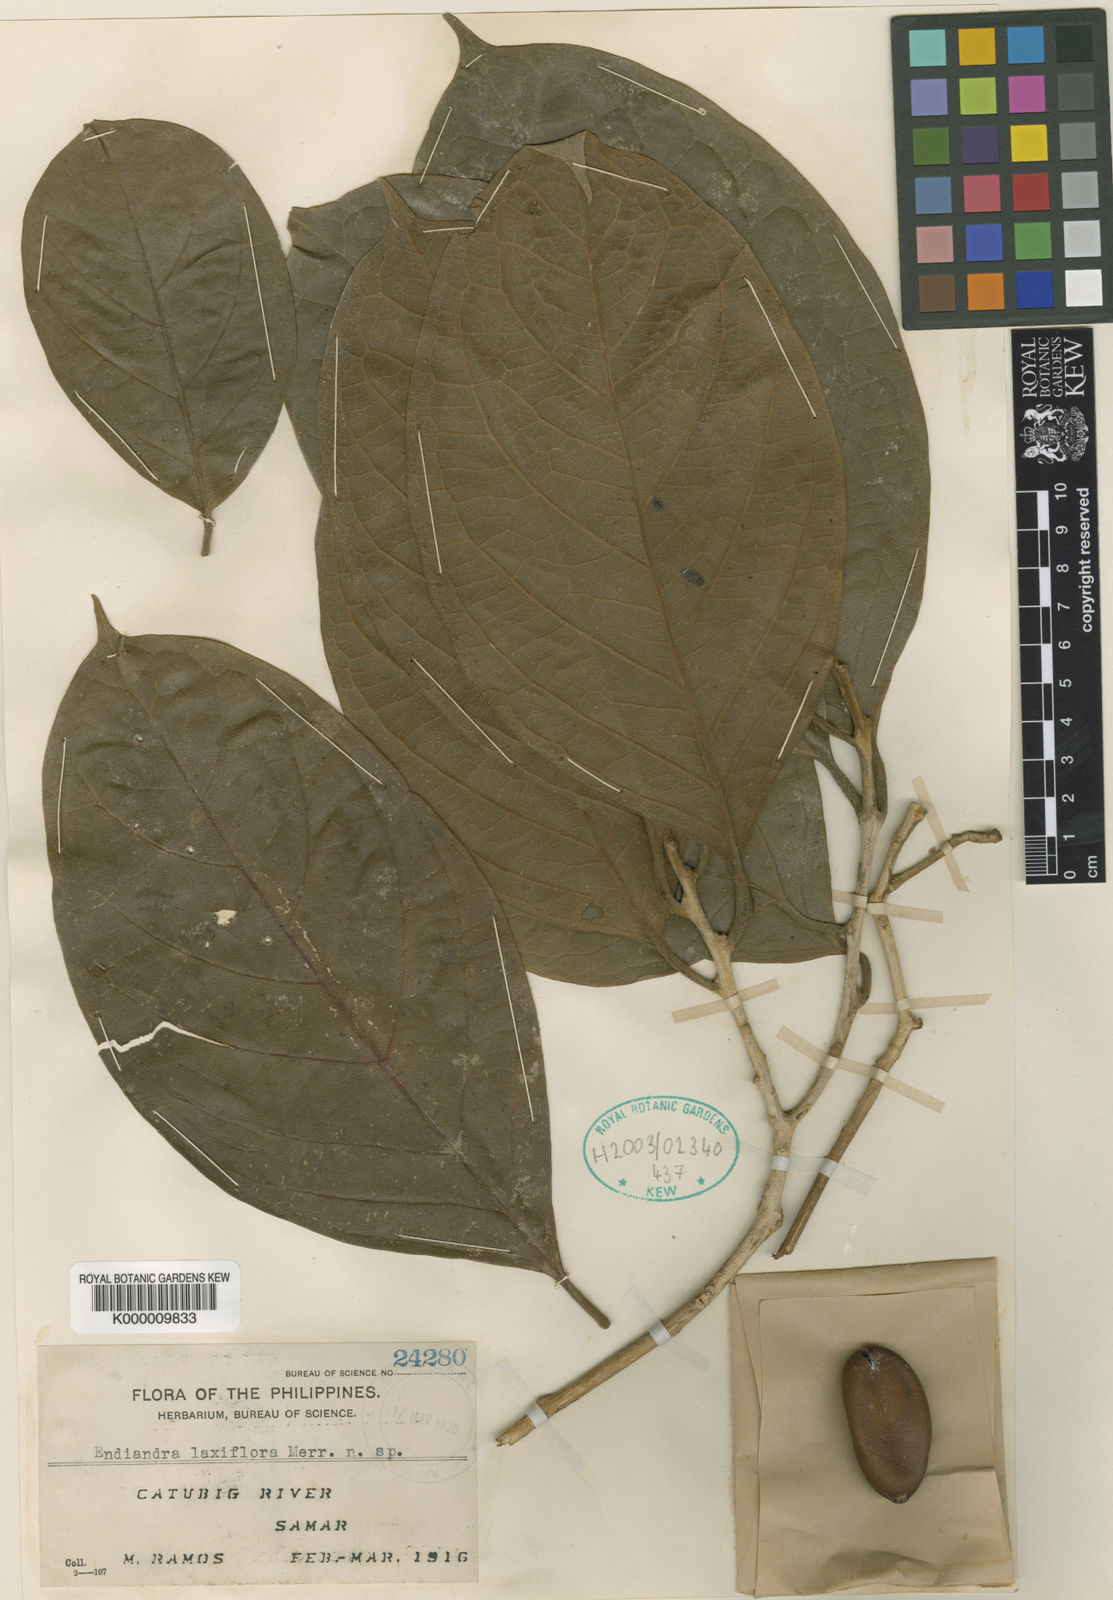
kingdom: Plantae
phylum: Tracheophyta
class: Magnoliopsida
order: Laurales
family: Lauraceae
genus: Endiandra
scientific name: Endiandra laxiflora
